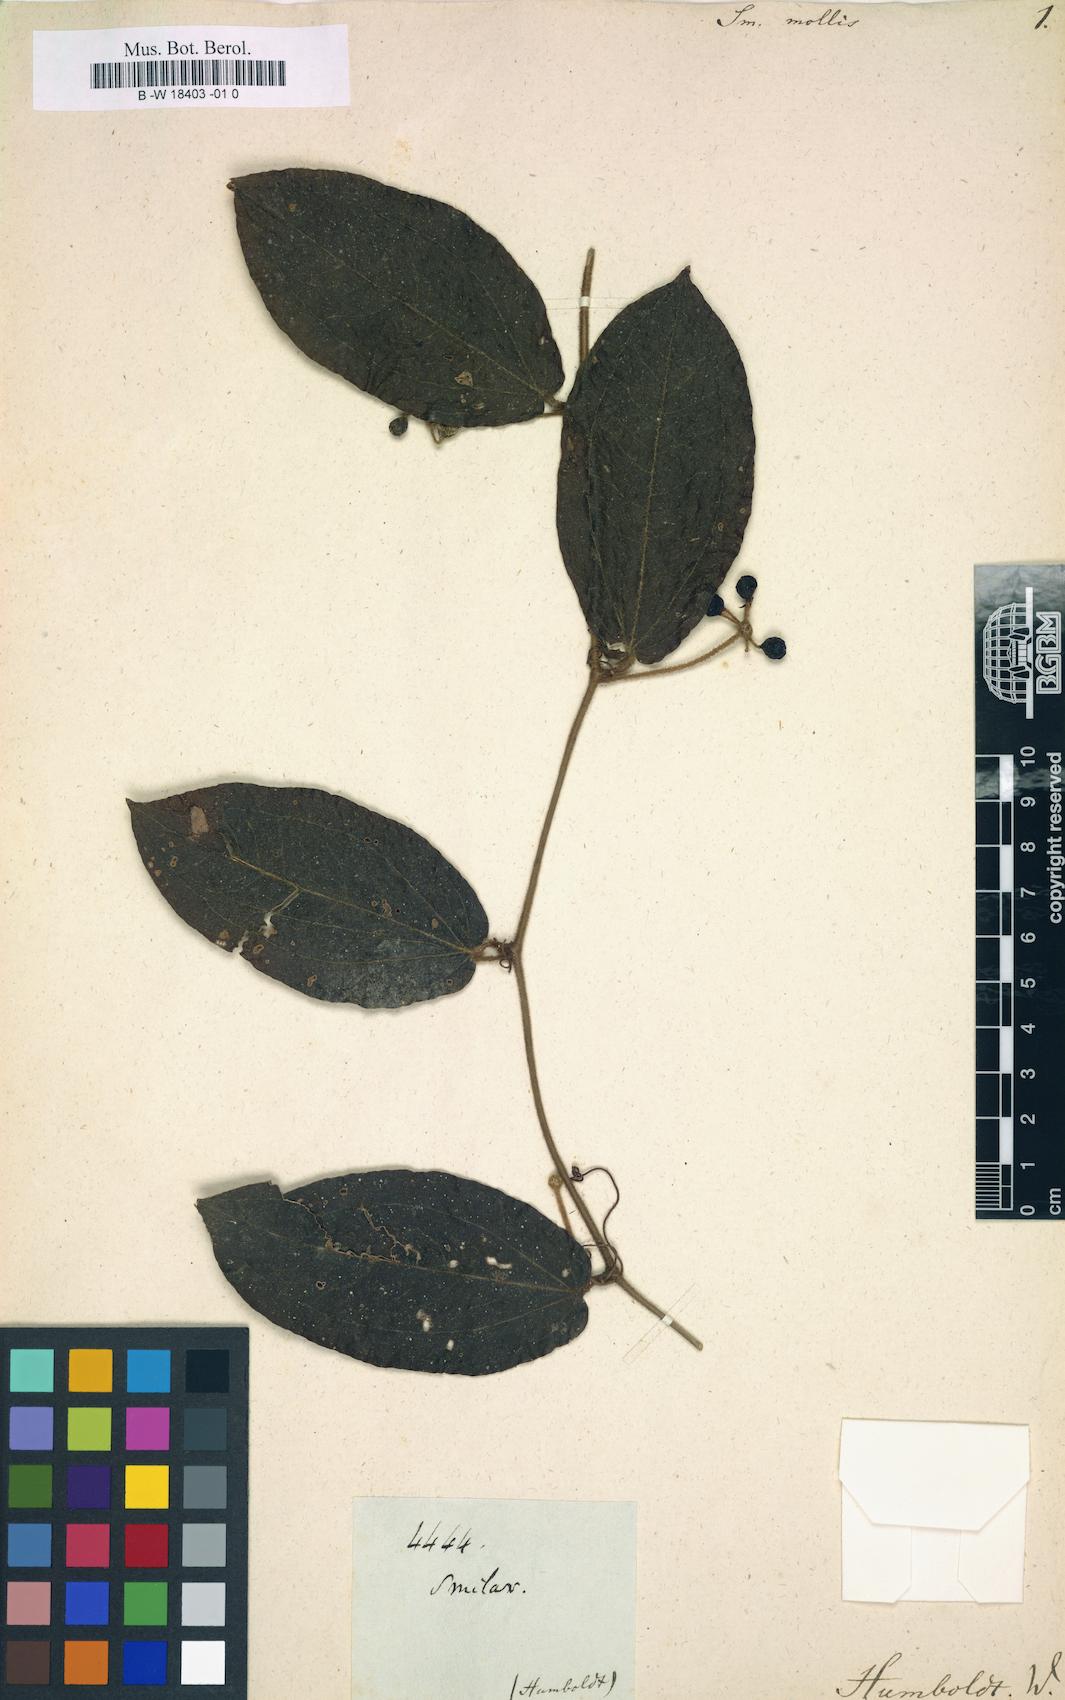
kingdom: Plantae
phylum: Tracheophyta
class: Liliopsida
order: Liliales
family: Smilacaceae
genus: Smilax
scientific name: Smilax mollis
